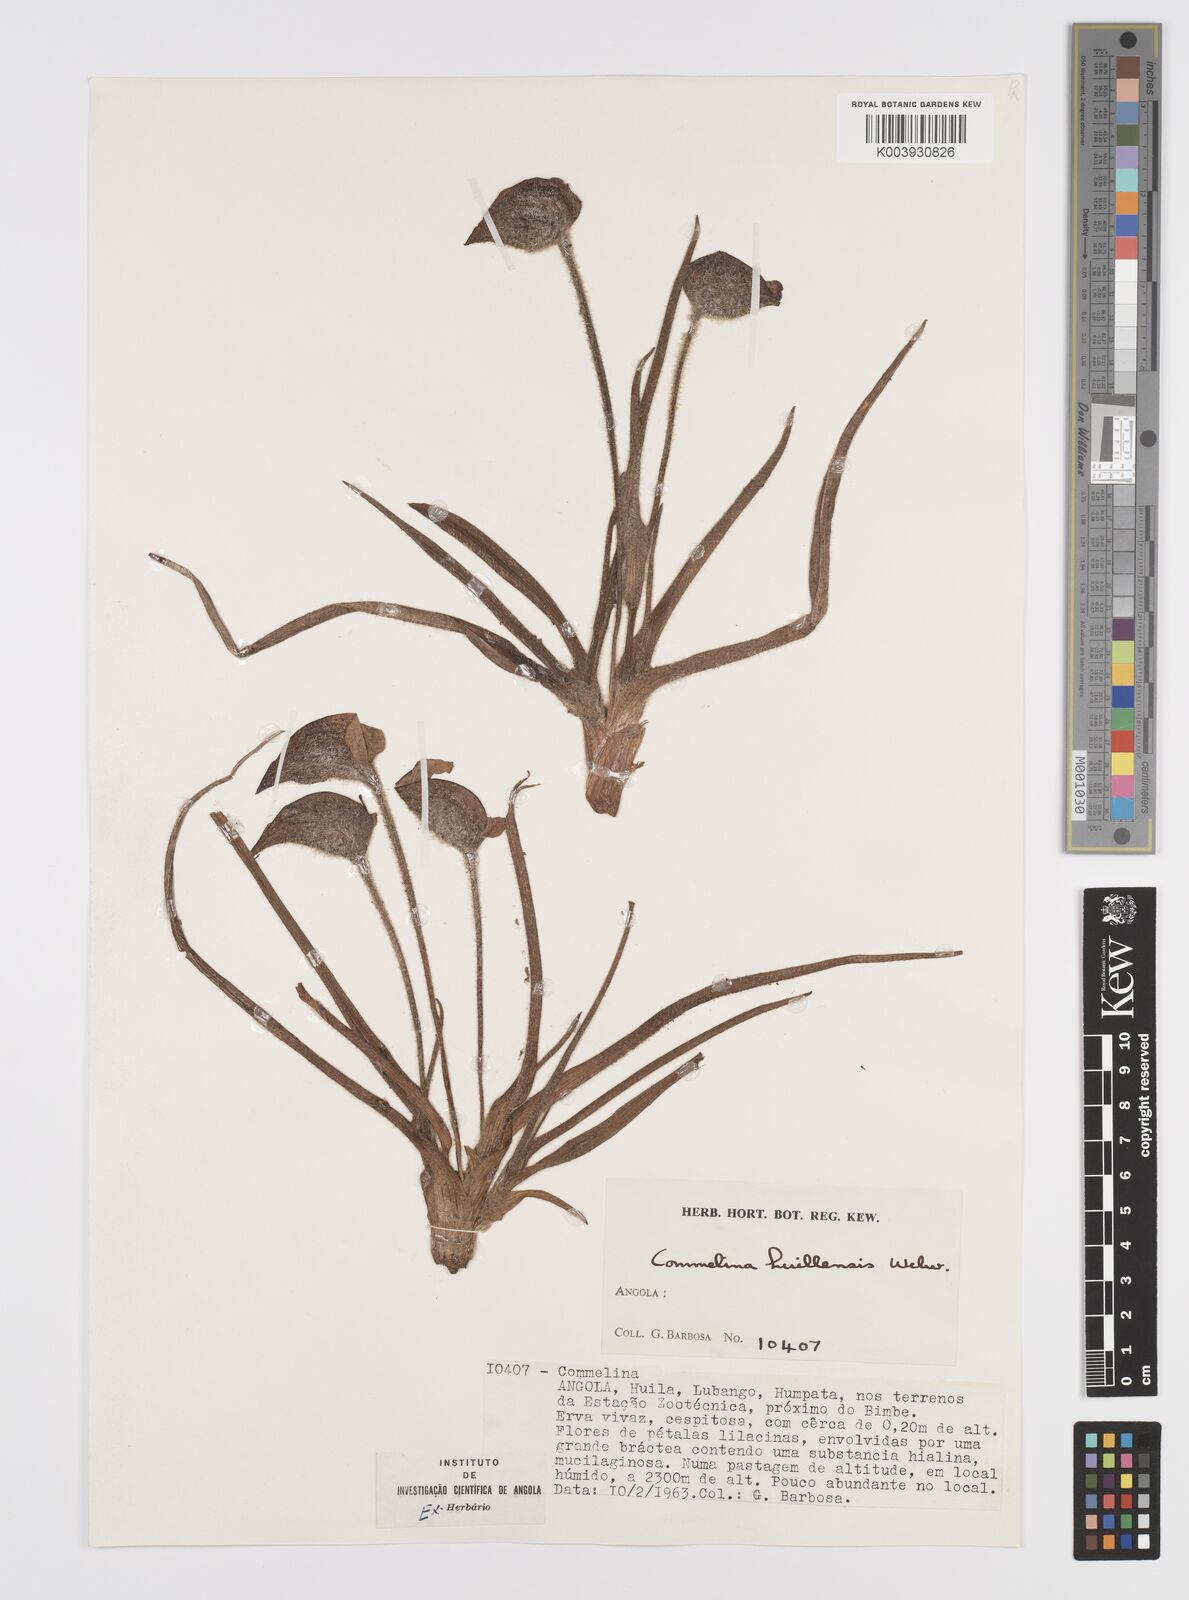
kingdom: Plantae
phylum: Tracheophyta
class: Liliopsida
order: Commelinales
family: Commelinaceae
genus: Commelina
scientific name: Commelina huillensis
